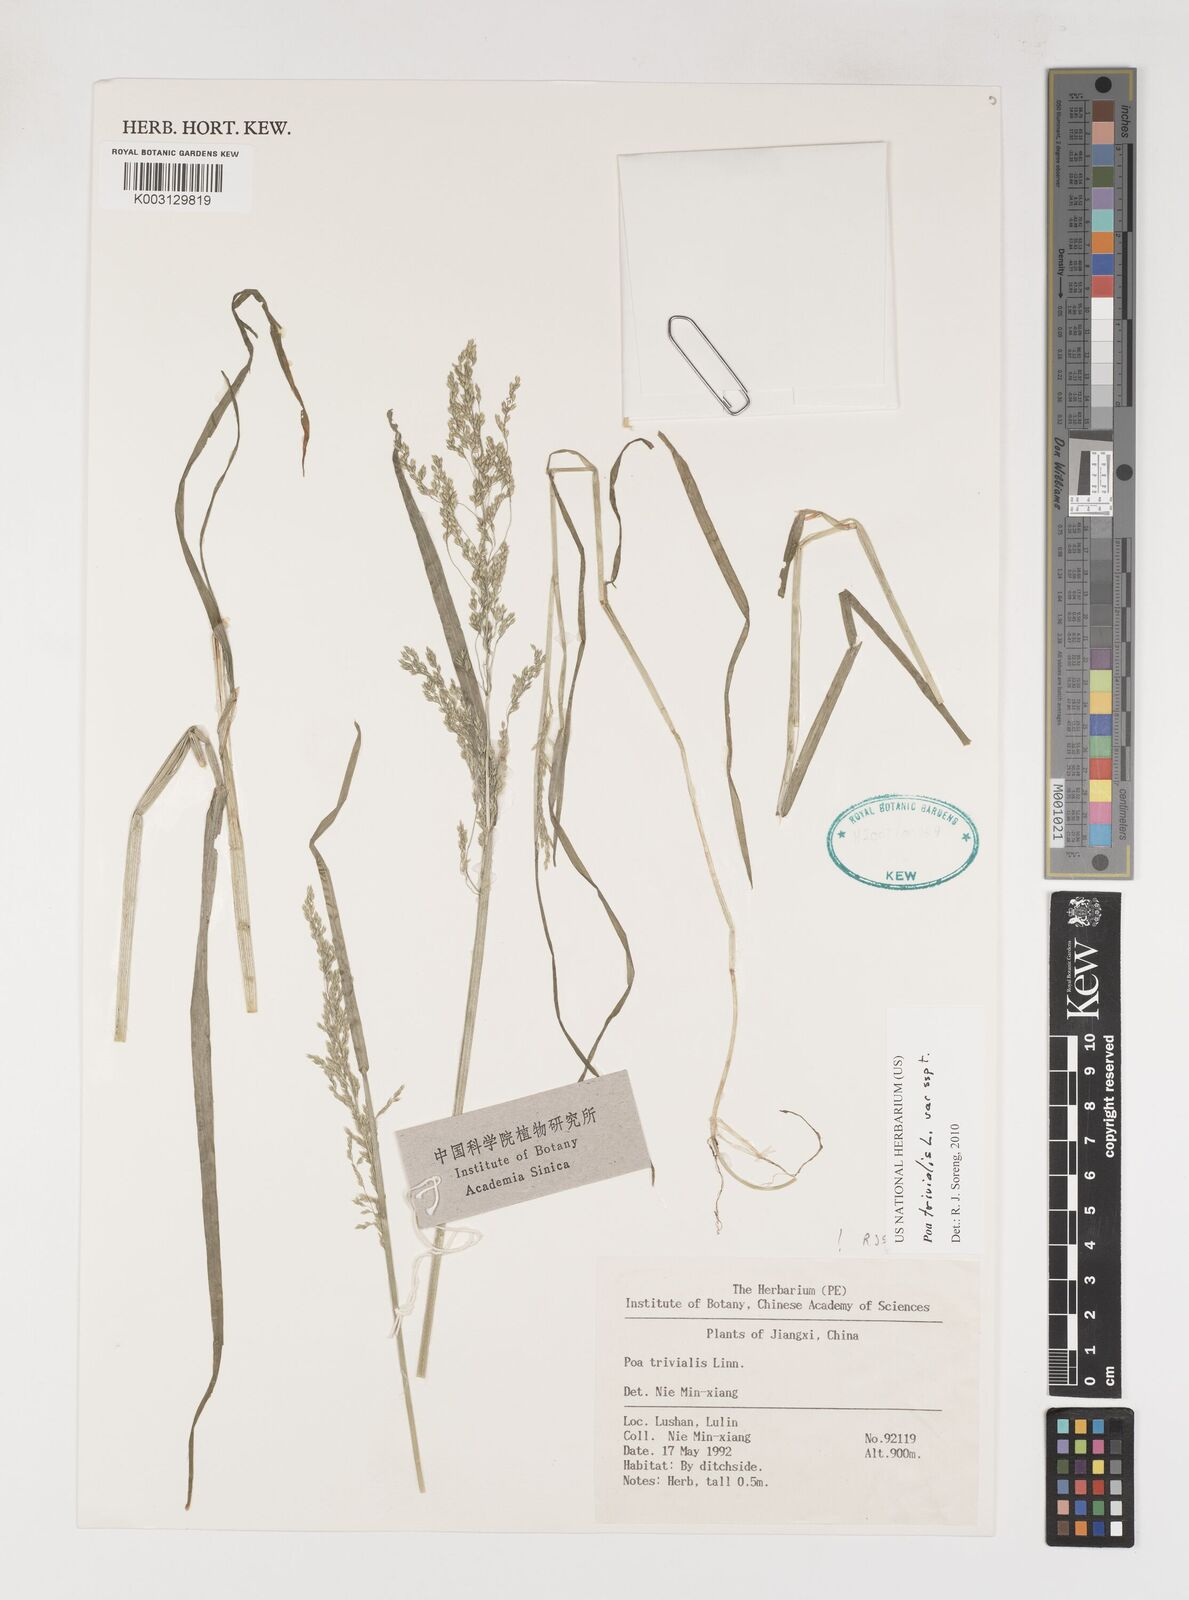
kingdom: Plantae
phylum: Tracheophyta
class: Liliopsida
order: Poales
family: Poaceae
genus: Poa
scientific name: Poa trivialis
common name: Rough bluegrass
